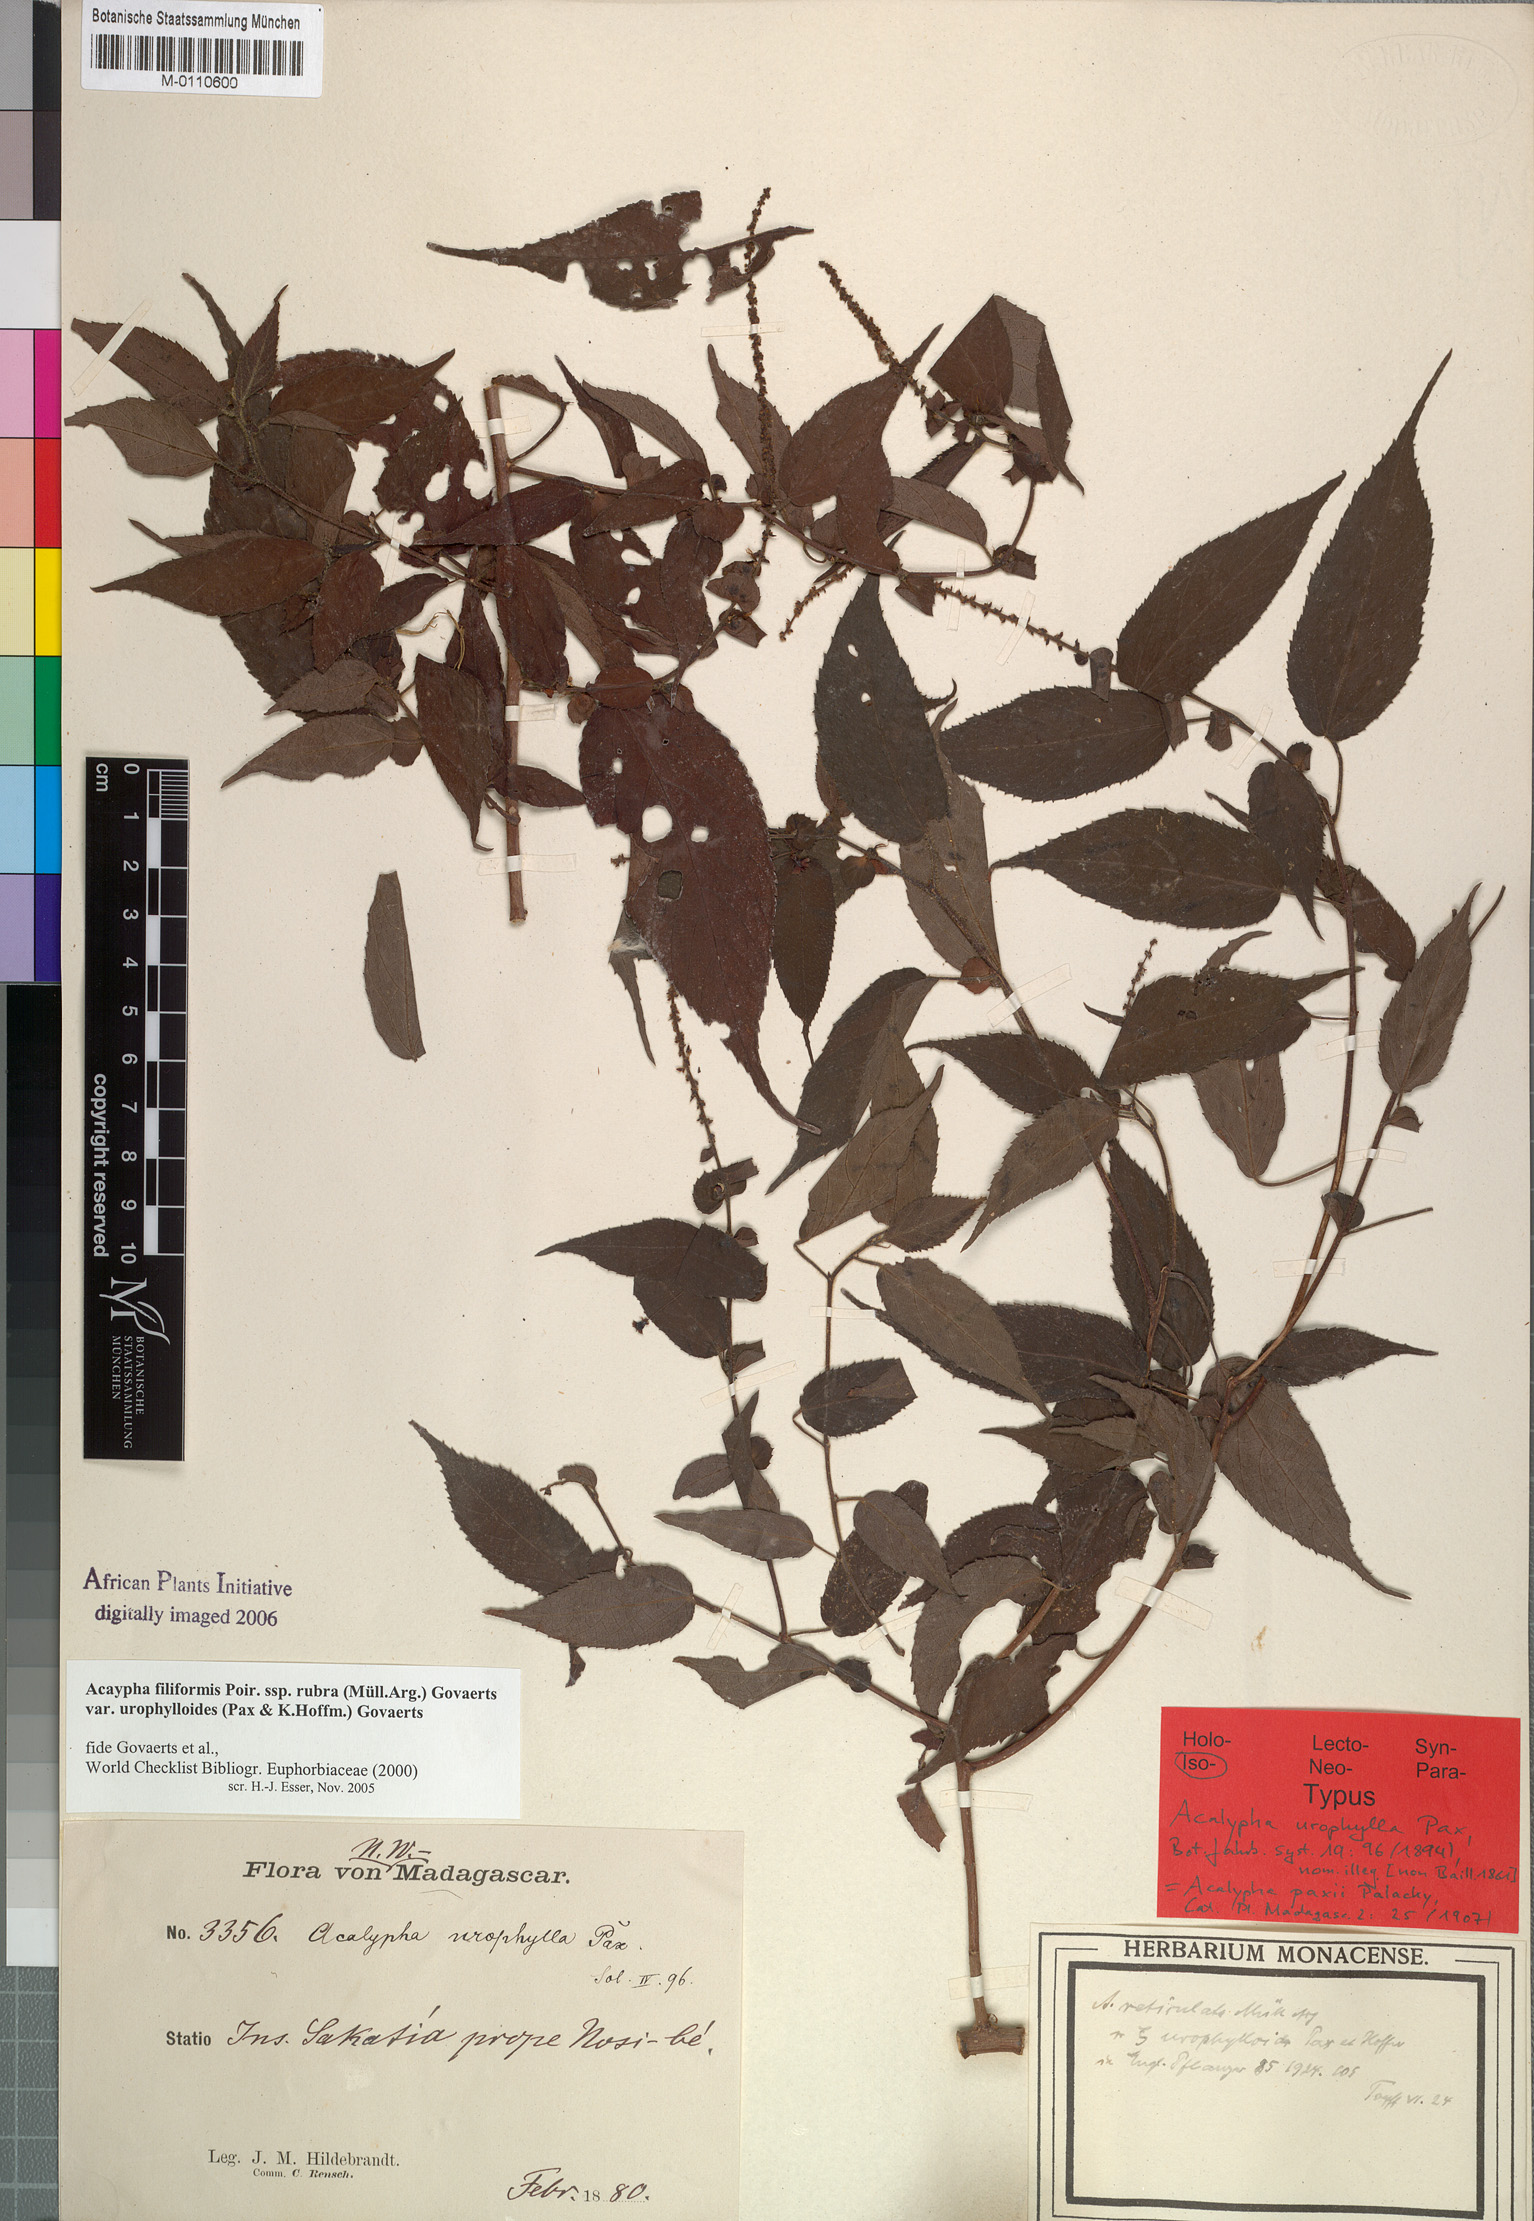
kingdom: Plantae
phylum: Tracheophyta
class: Magnoliopsida
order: Malpighiales
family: Euphorbiaceae
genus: Acalypha
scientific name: Acalypha pervilleana
